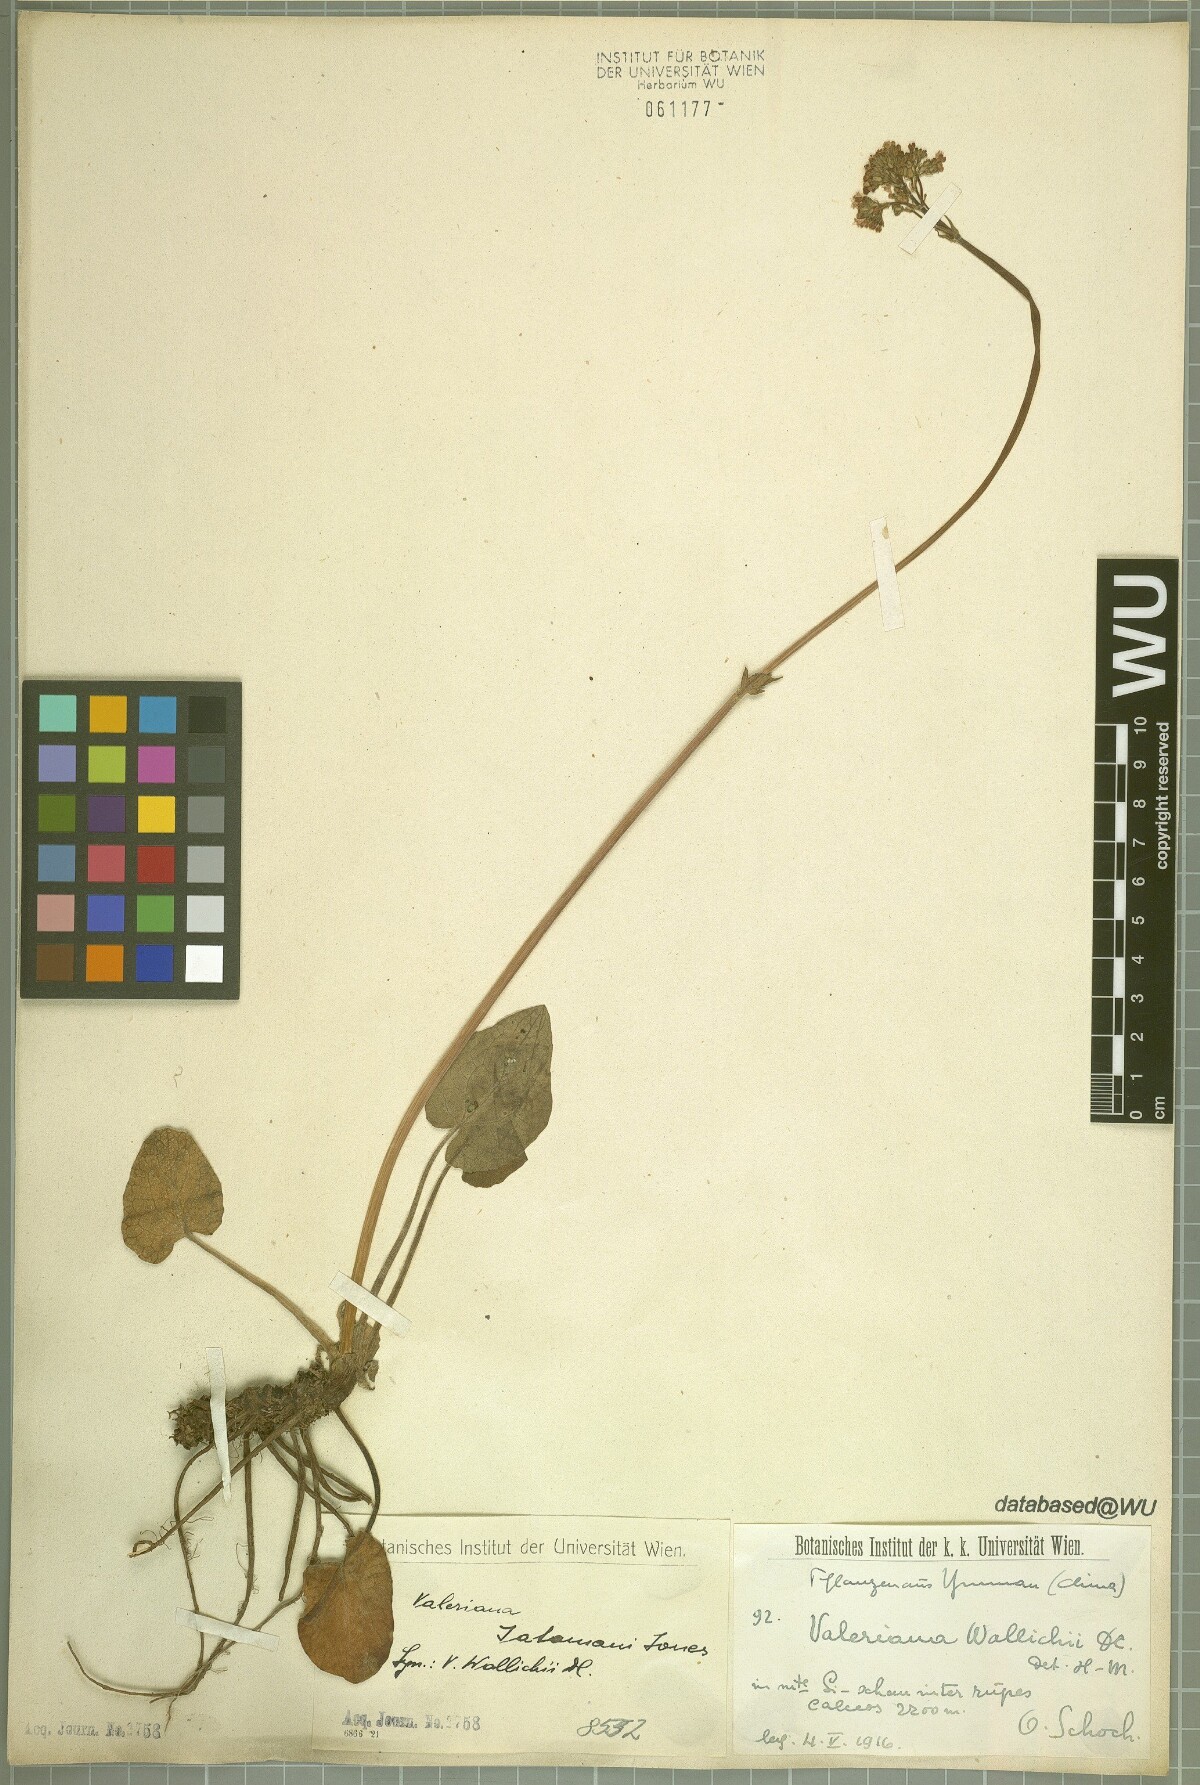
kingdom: Plantae
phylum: Tracheophyta
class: Magnoliopsida
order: Dipsacales
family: Caprifoliaceae
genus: Valeriana
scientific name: Valeriana jatamansi
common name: Indian valerian
